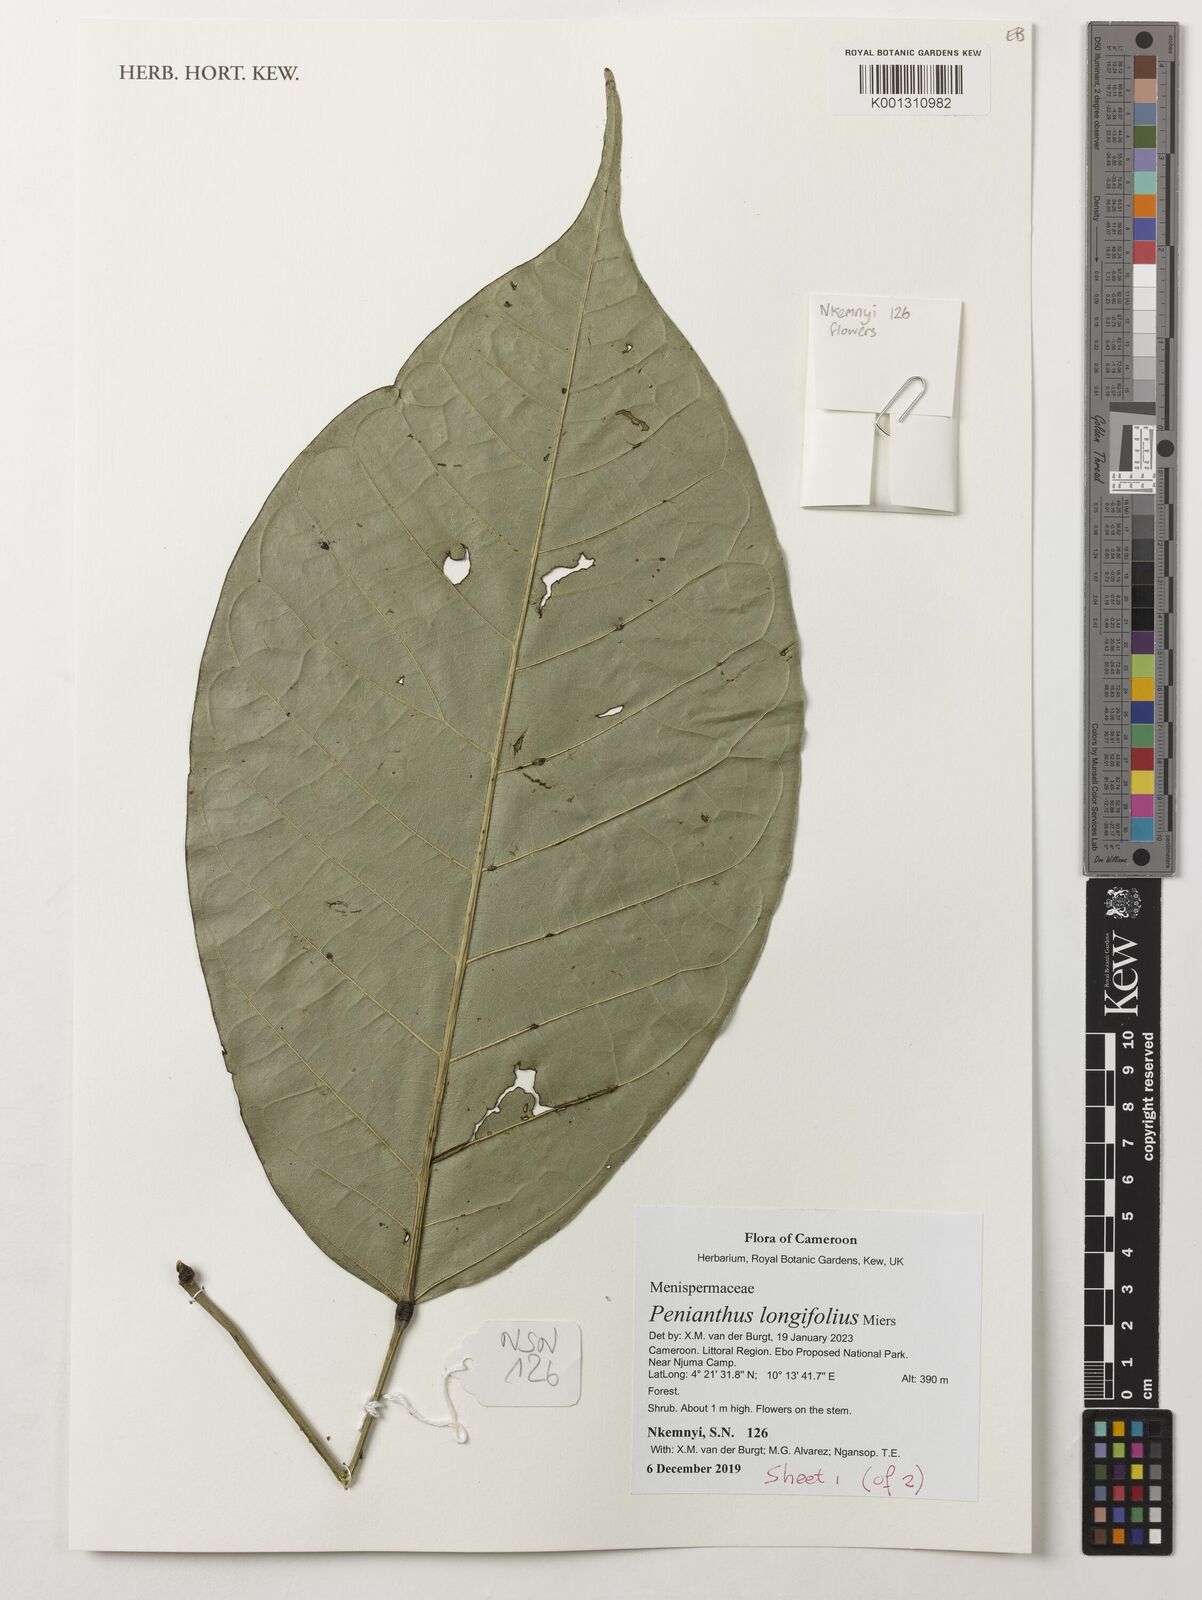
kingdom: Plantae
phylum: Tracheophyta
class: Magnoliopsida
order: Ranunculales
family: Menispermaceae
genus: Penianthus
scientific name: Penianthus longifolius
